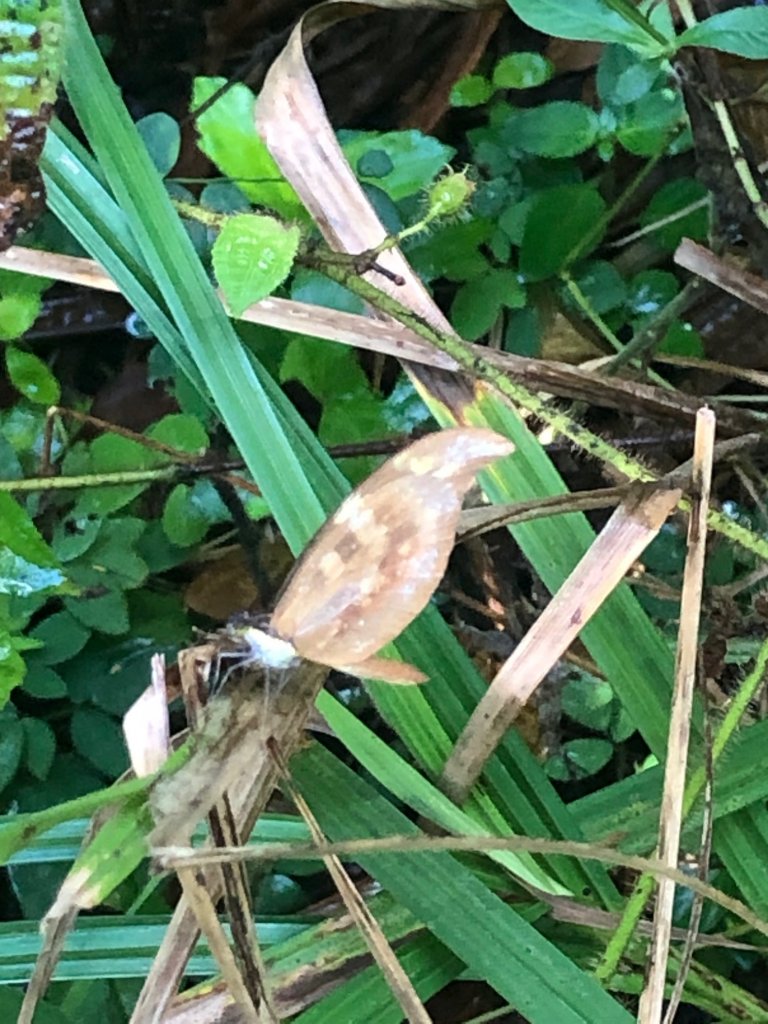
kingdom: Animalia
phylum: Arthropoda
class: Insecta
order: Lepidoptera
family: Pieridae
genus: Dismorphia
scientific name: Dismorphia spio
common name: Hispaniolan Mimic-White
